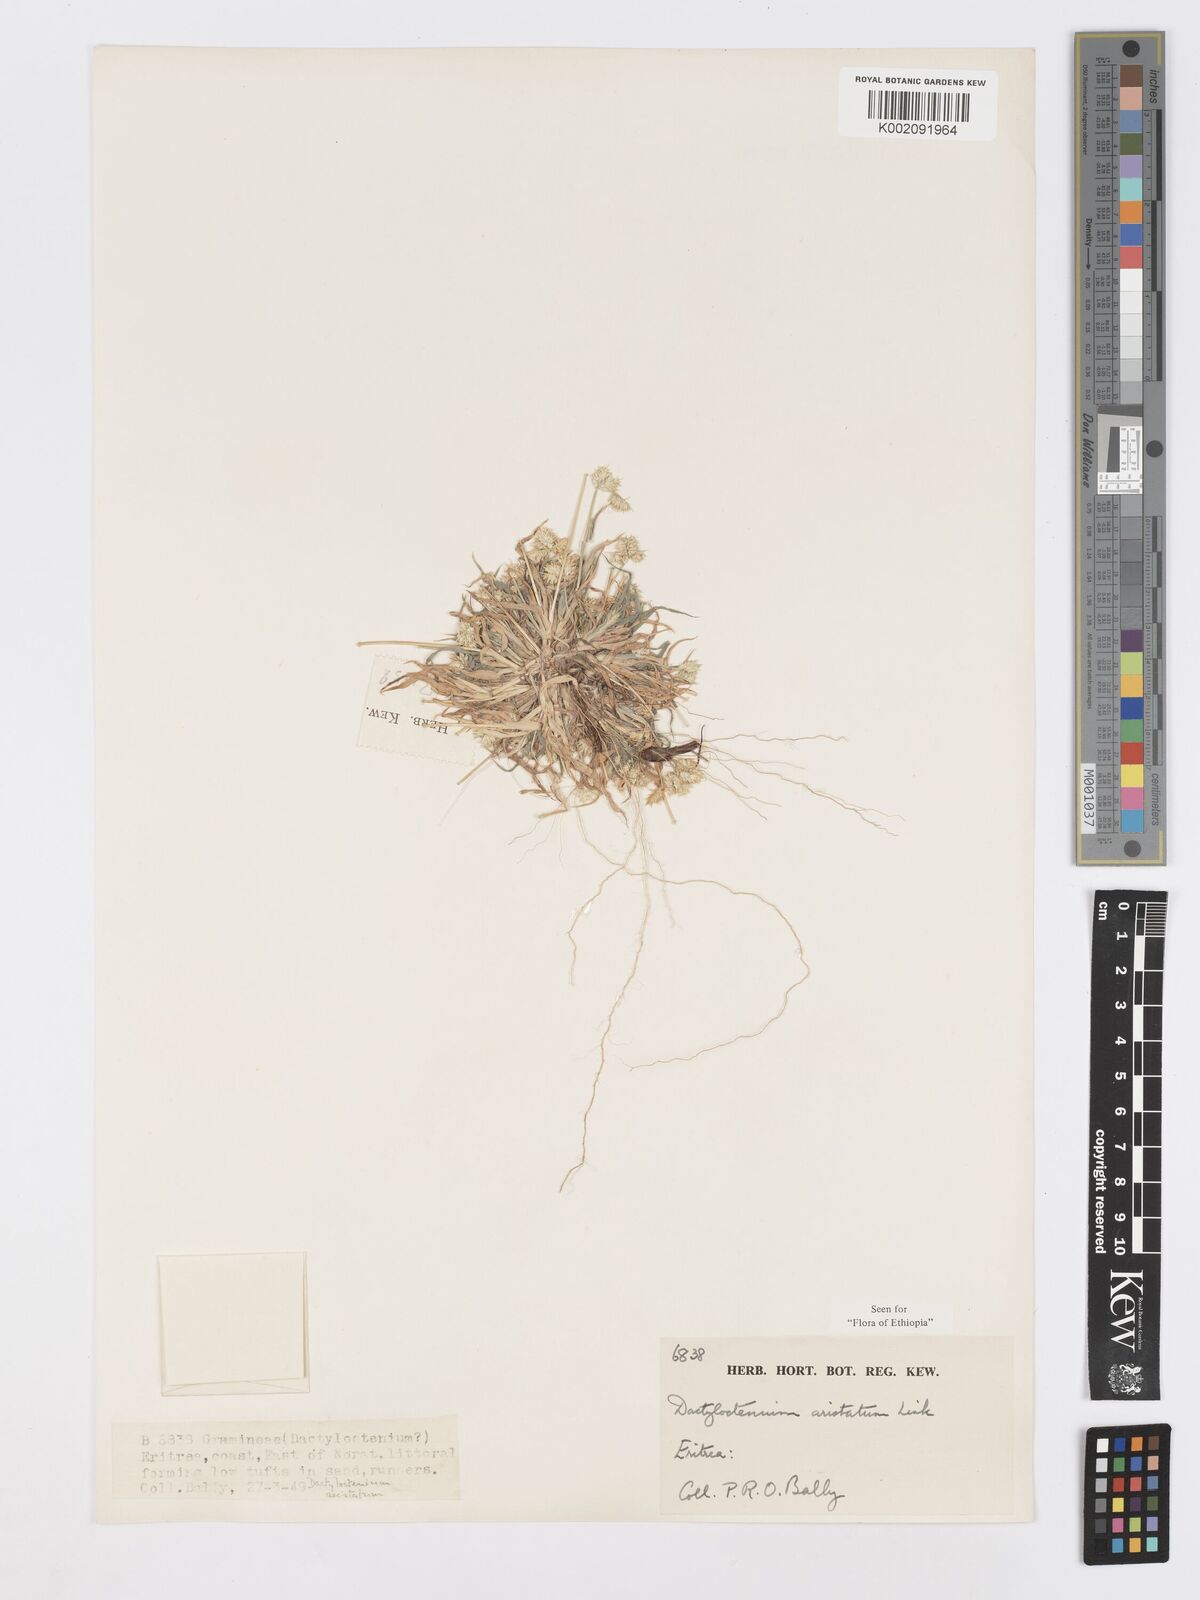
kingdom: Plantae
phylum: Tracheophyta
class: Liliopsida
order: Poales
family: Poaceae
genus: Dactyloctenium
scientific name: Dactyloctenium aristatum
